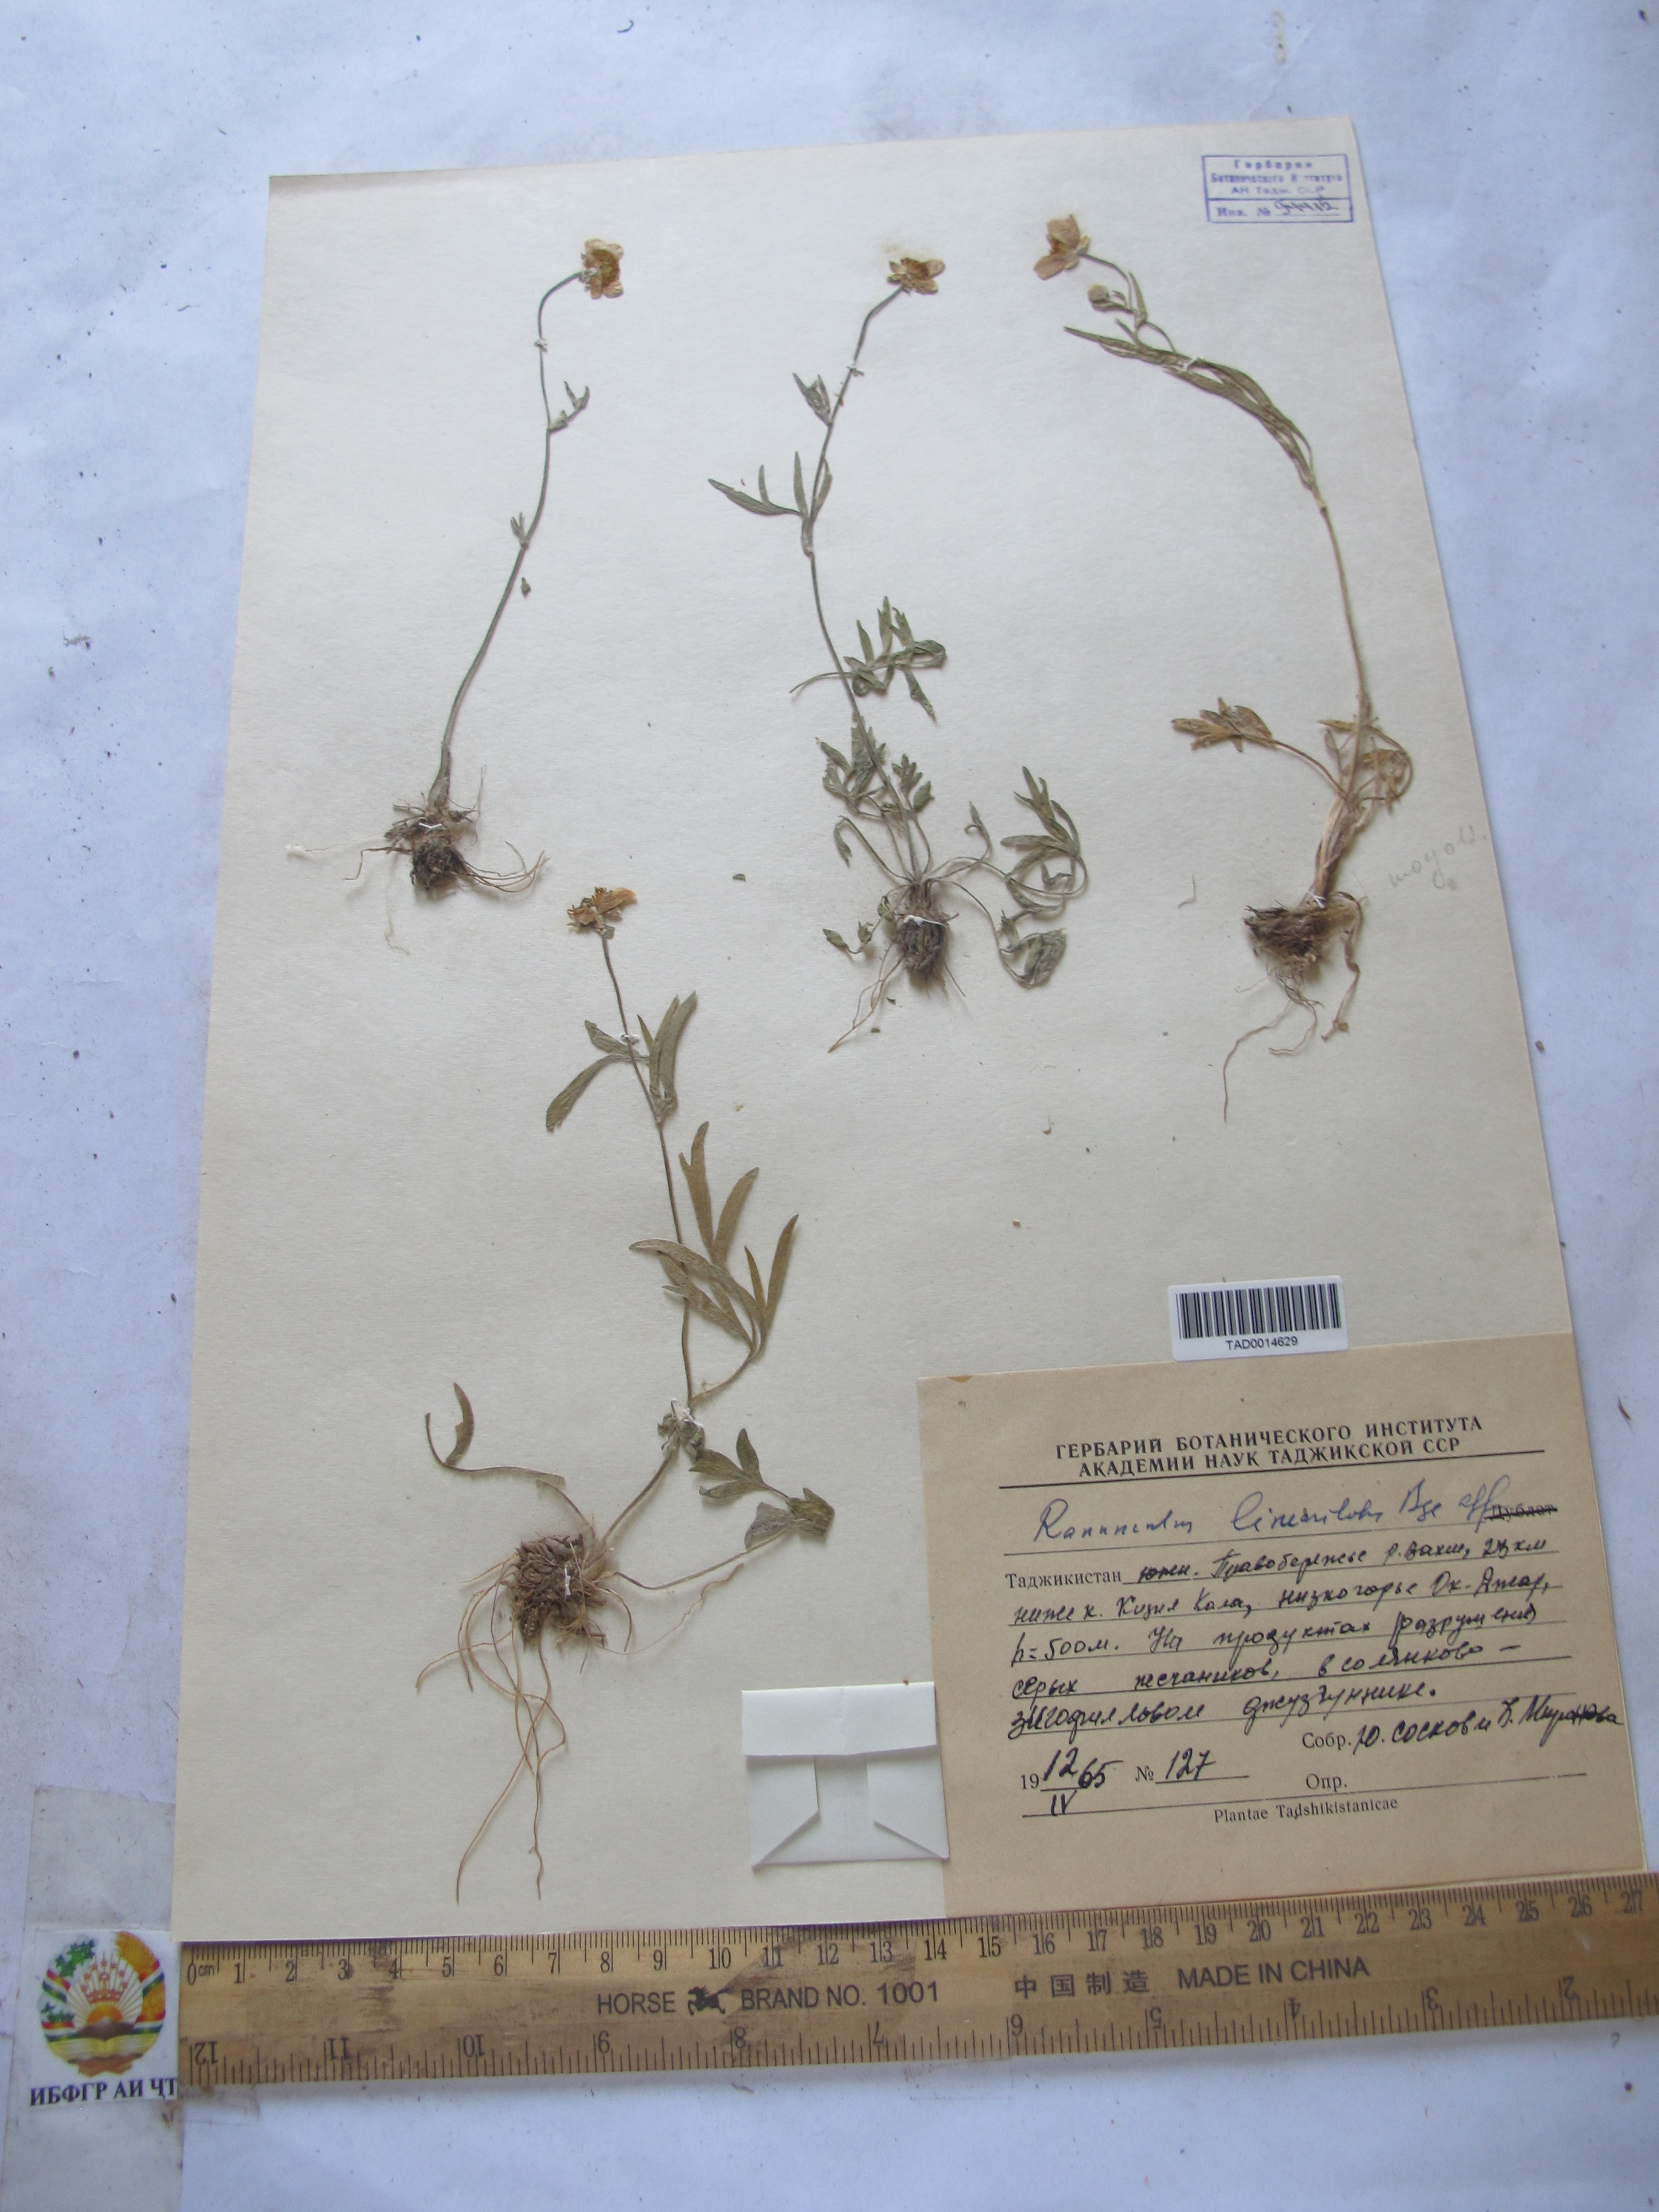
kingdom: Plantae
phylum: Tracheophyta
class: Magnoliopsida
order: Ranunculales
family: Ranunculaceae
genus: Ranunculus
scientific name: Ranunculus linearilobus
